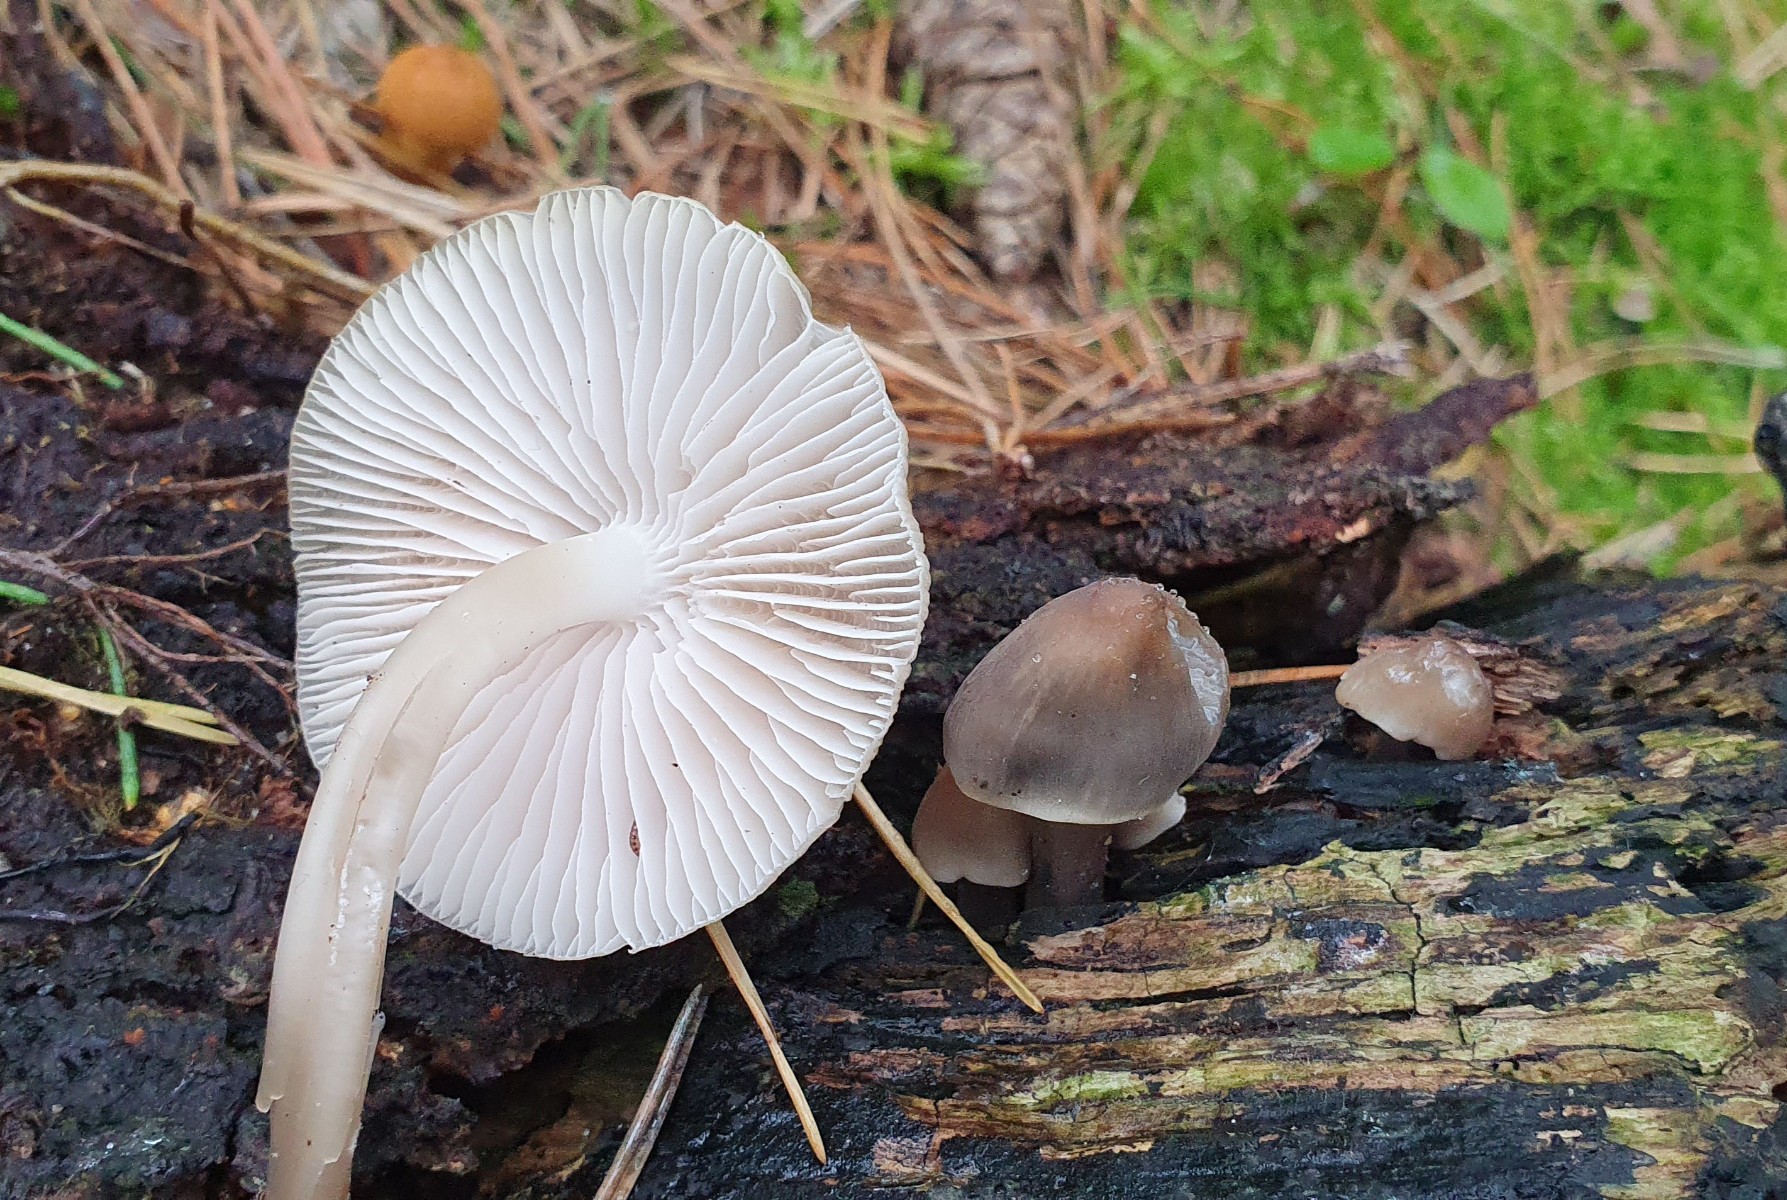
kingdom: Fungi
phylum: Basidiomycota
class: Agaricomycetes
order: Agaricales
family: Mycenaceae
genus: Mycena
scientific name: Mycena galericulata
